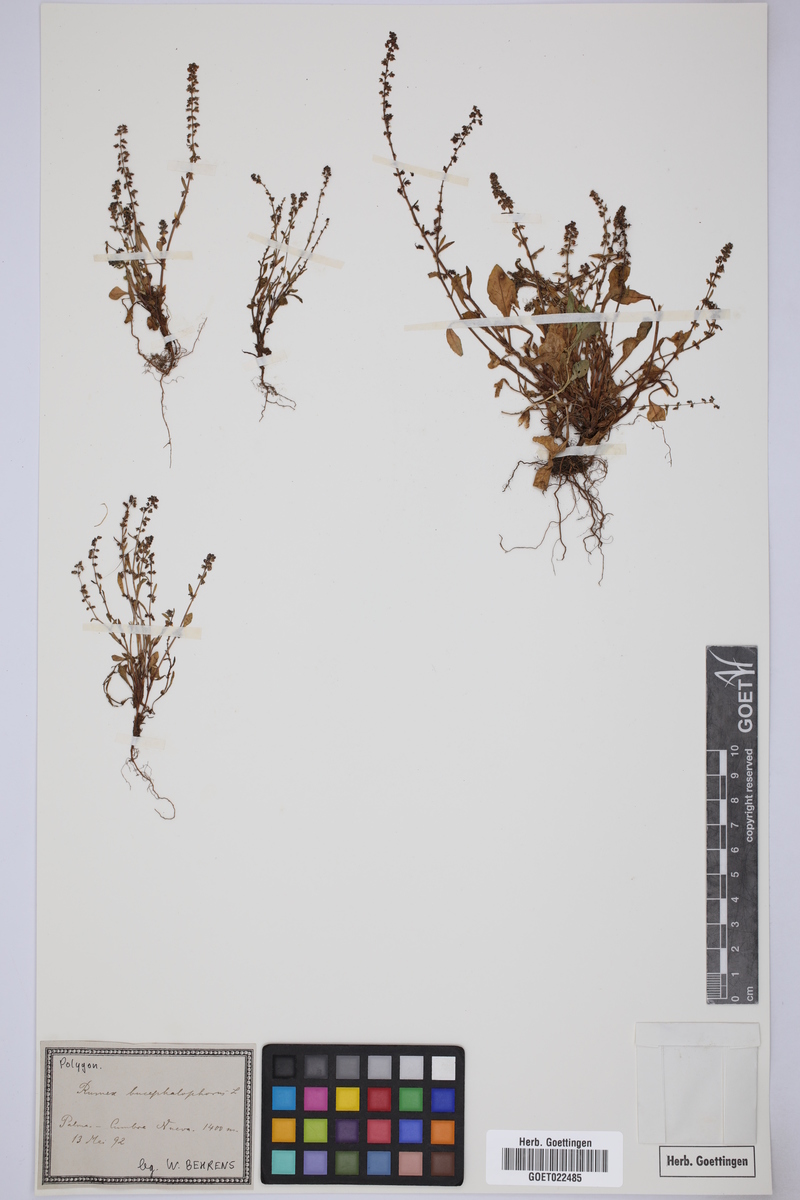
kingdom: Plantae
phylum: Tracheophyta
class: Magnoliopsida
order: Caryophyllales
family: Polygonaceae
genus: Rumex
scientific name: Rumex bucephalophorus
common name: Red dock
